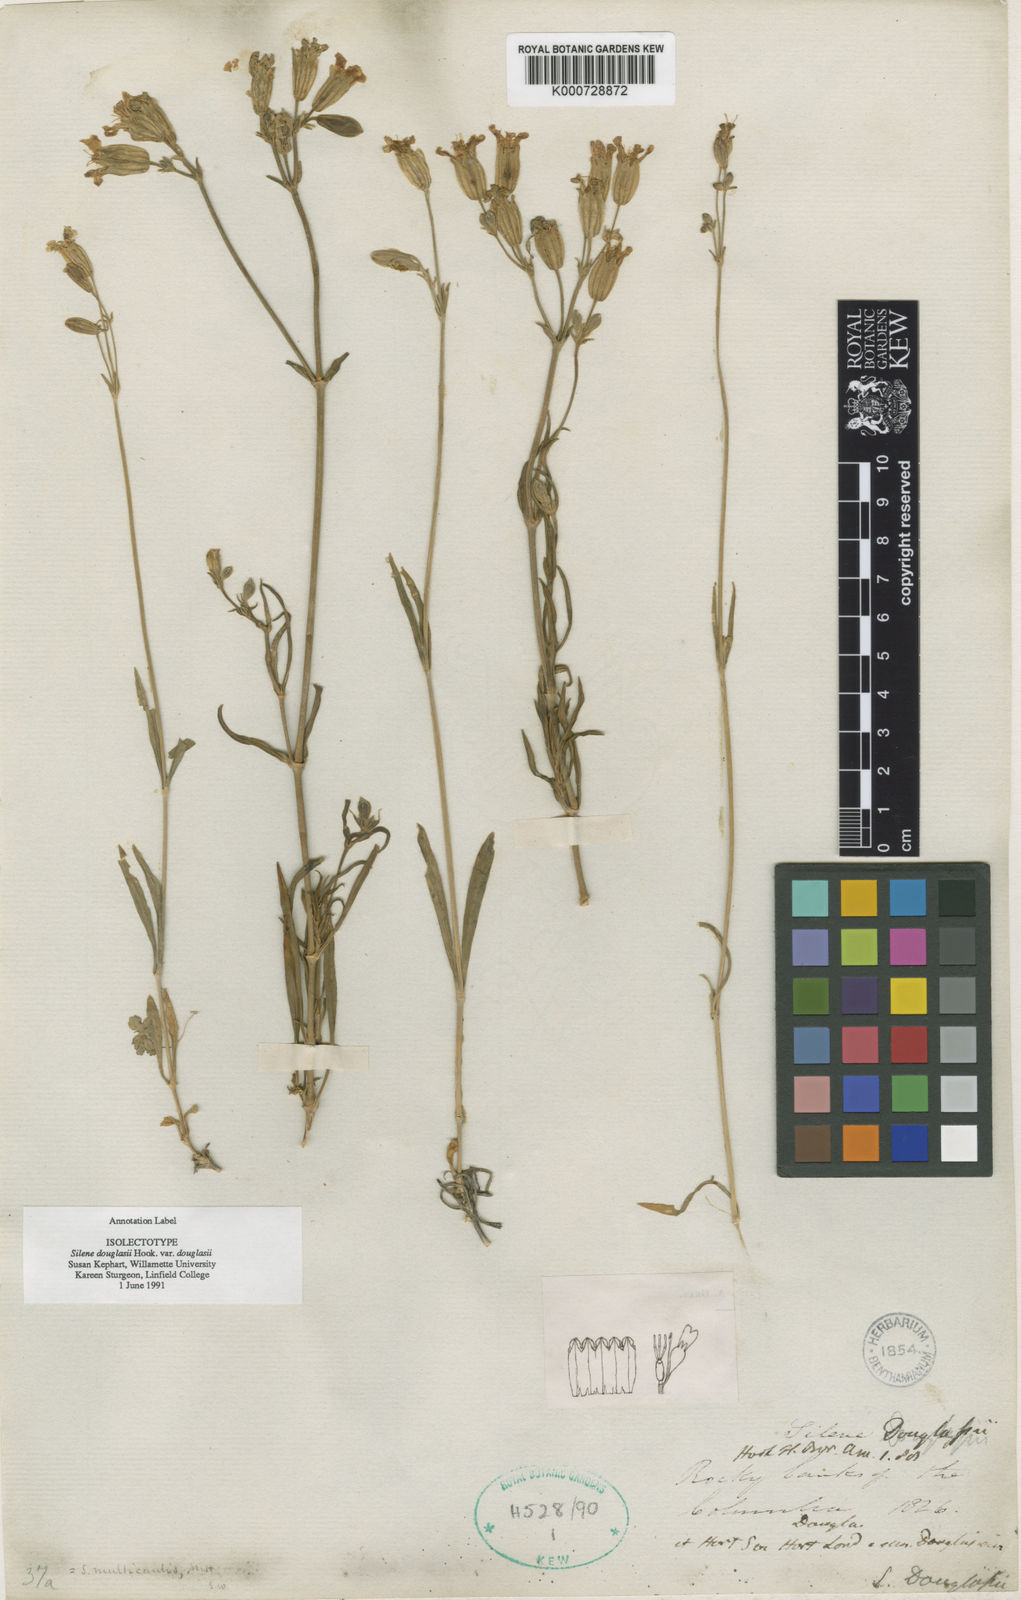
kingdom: Plantae
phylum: Tracheophyta
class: Magnoliopsida
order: Caryophyllales
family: Caryophyllaceae
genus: Silene
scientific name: Silene douglasii
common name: Douglas's catchfly
